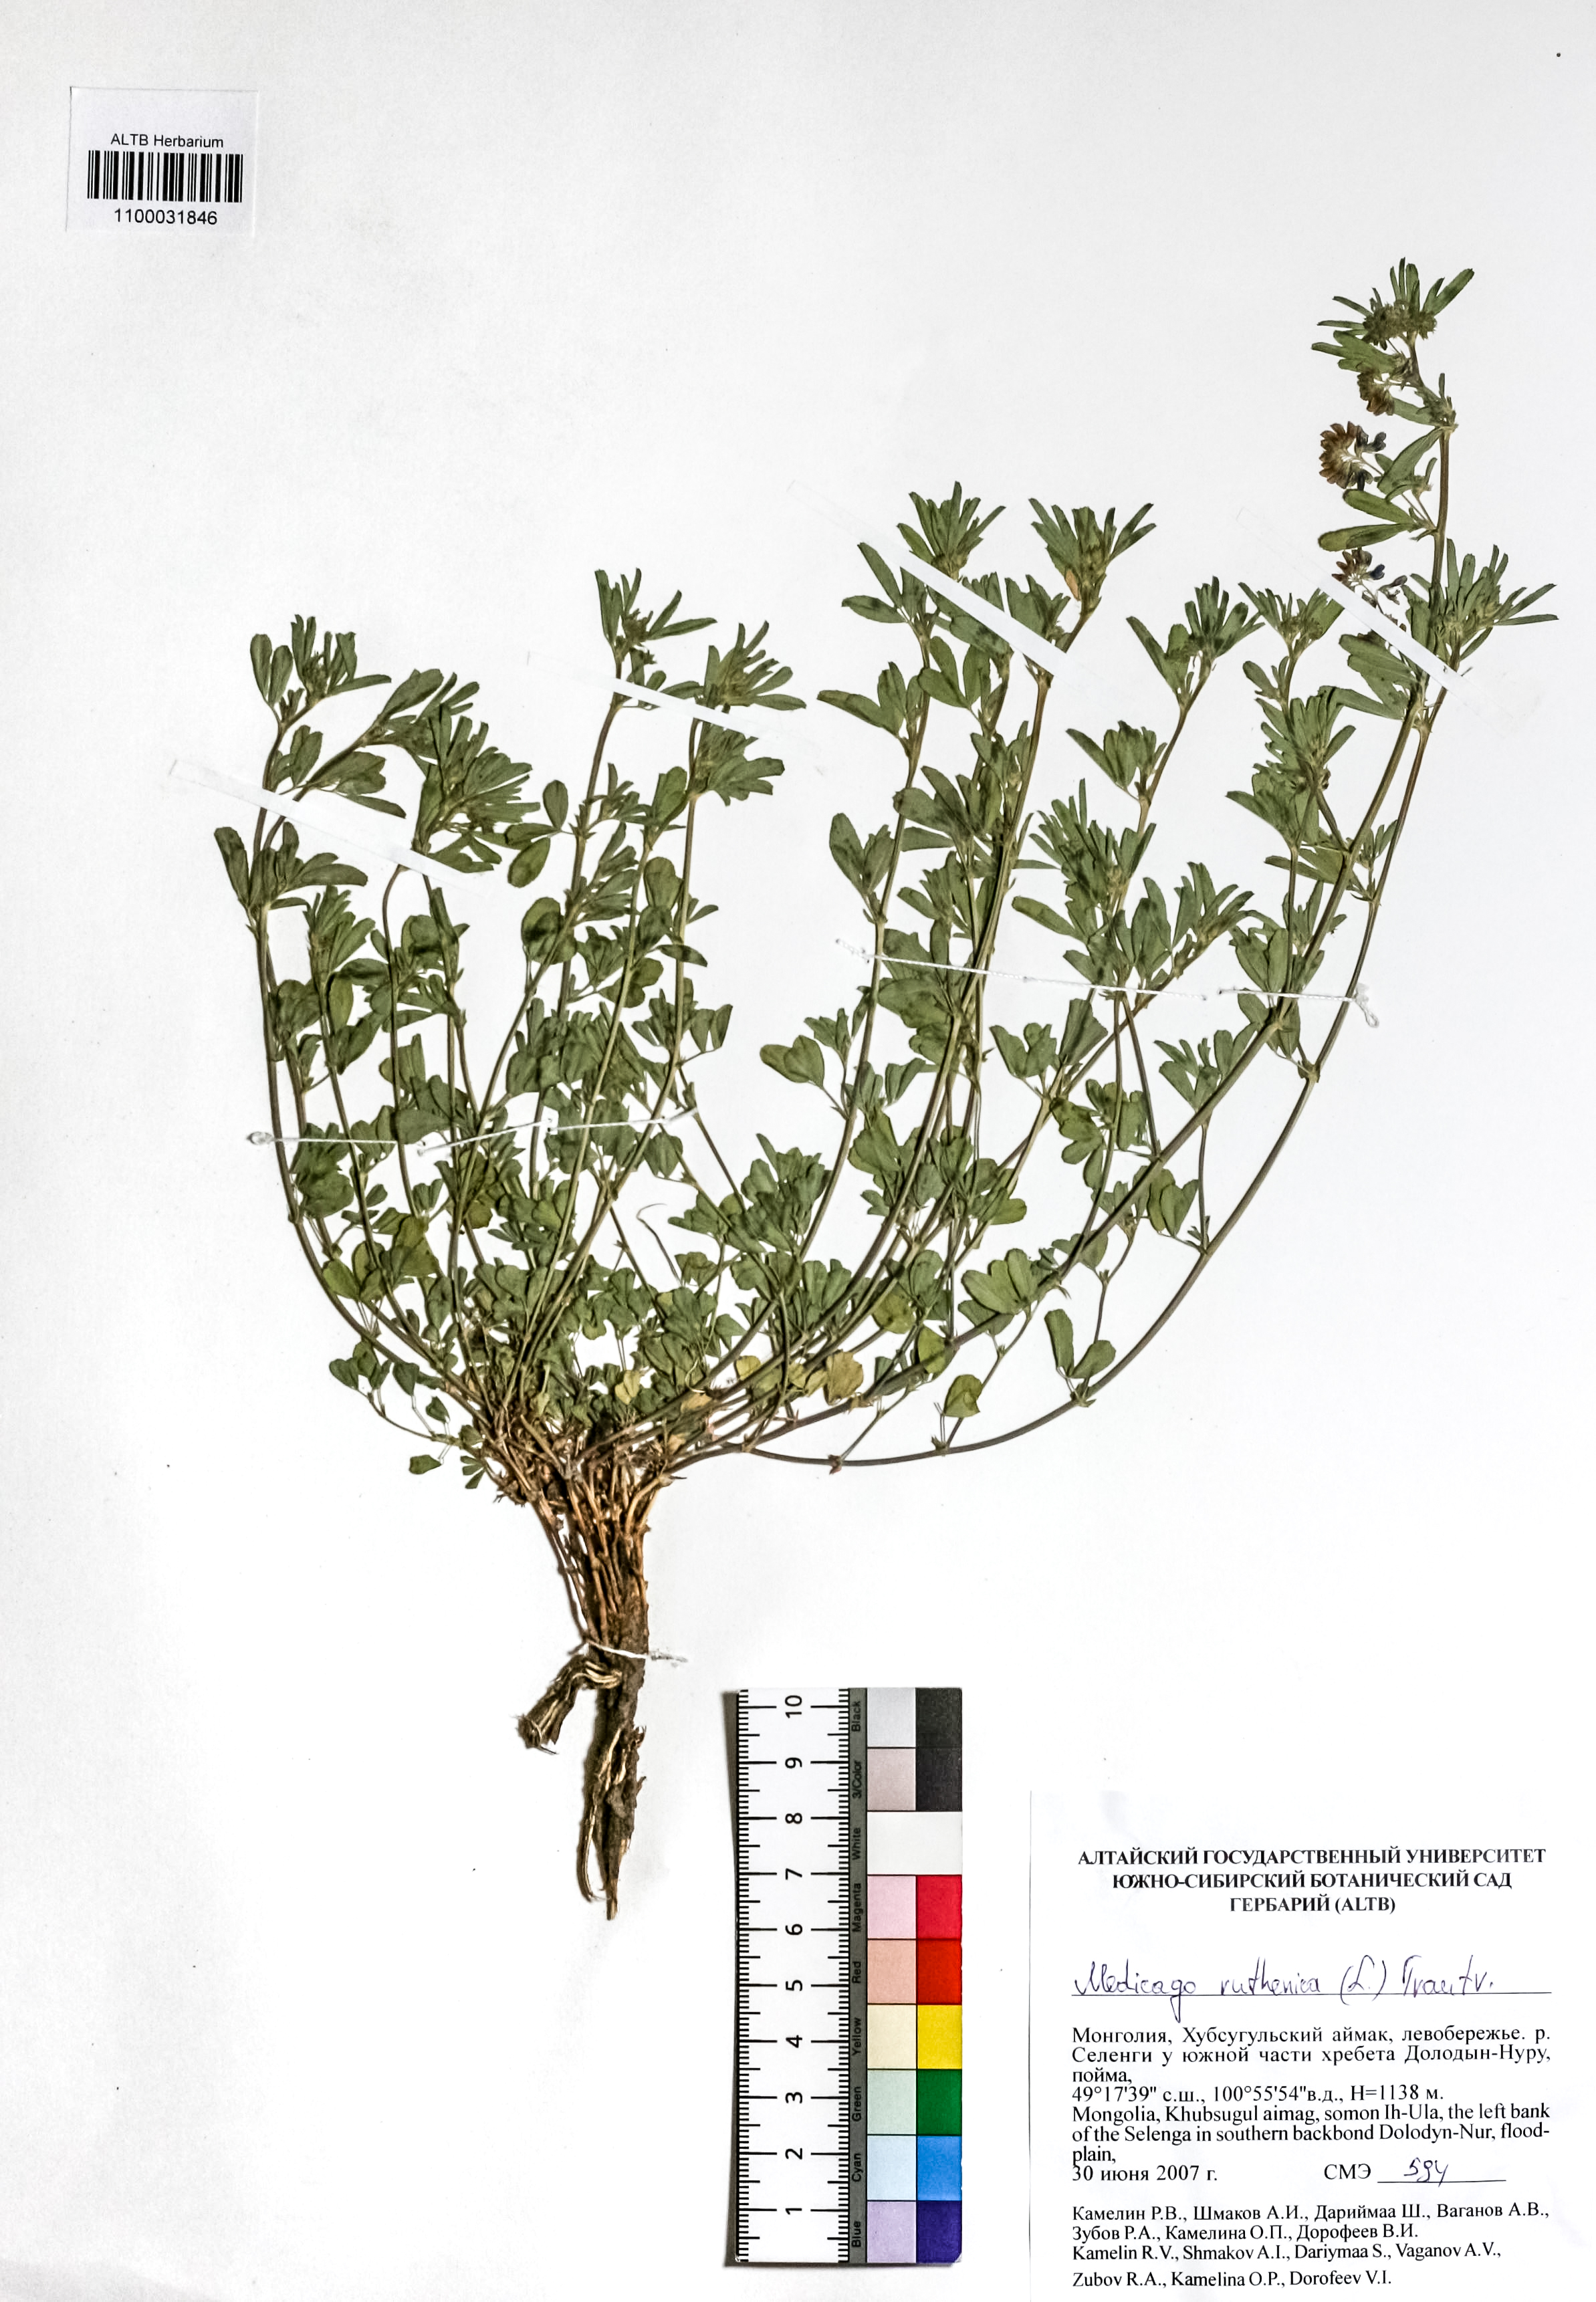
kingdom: Plantae
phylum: Tracheophyta
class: Magnoliopsida
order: Fabales
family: Fabaceae
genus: Medicago
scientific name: Medicago ruthenica
